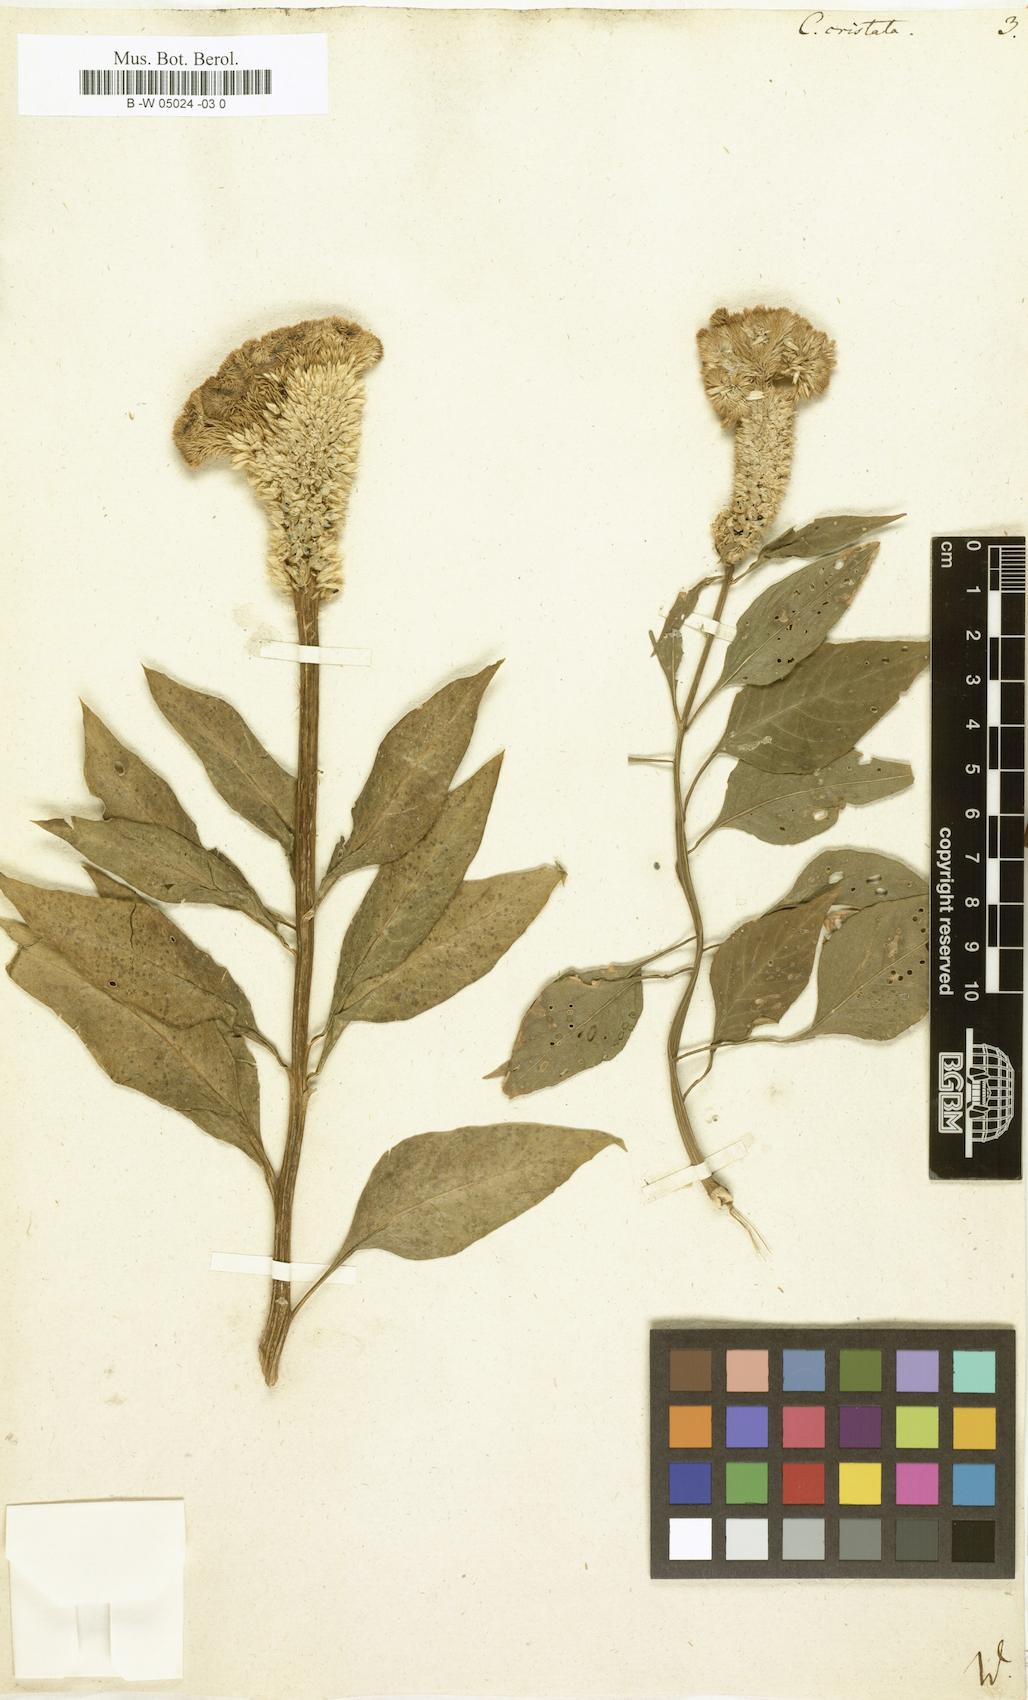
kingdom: Plantae
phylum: Tracheophyta
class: Magnoliopsida
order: Caryophyllales
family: Amaranthaceae
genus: Celosia
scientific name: Celosia argentea
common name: Feather cockscomb
